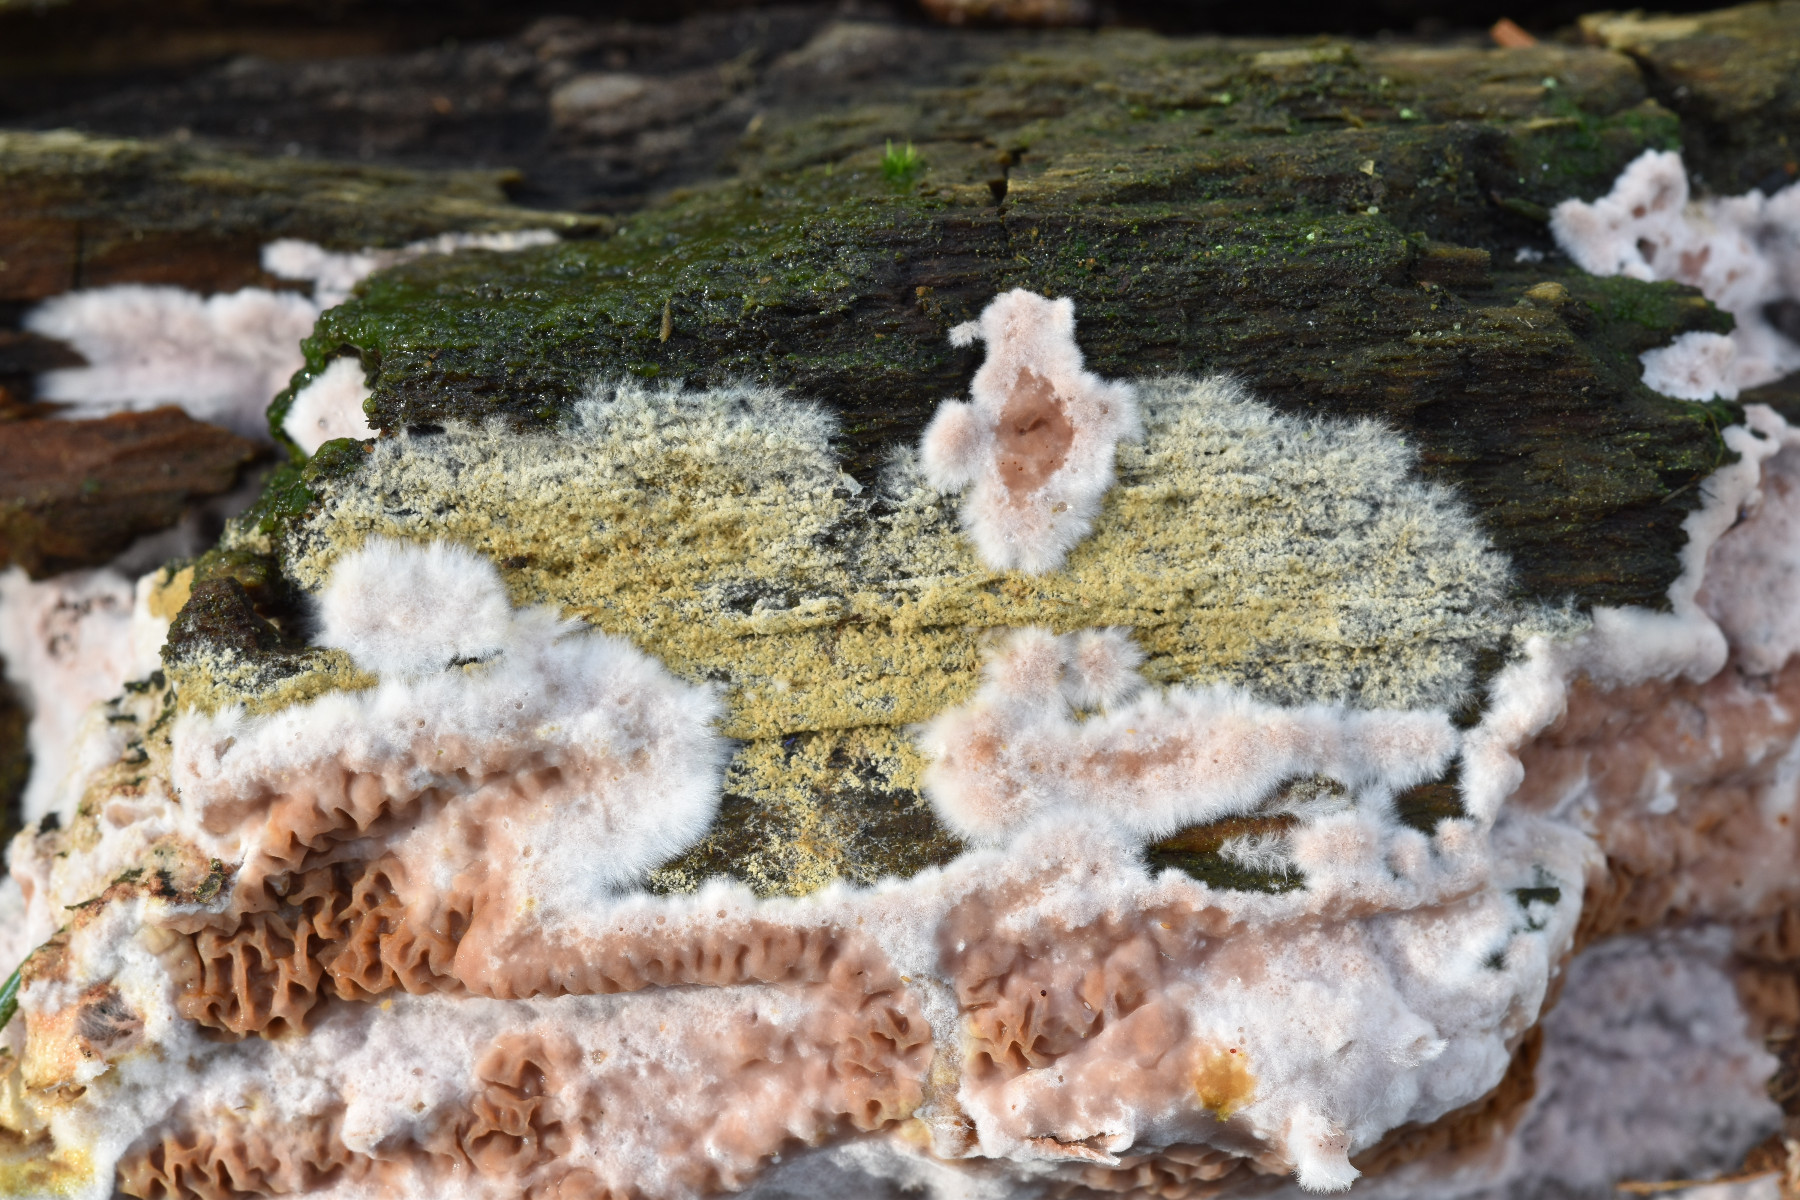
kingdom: Fungi
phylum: Basidiomycota
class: Agaricomycetes
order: Boletales
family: Serpulaceae
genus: Serpula
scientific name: Serpula himantioides
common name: tyndkødet hussvamp
